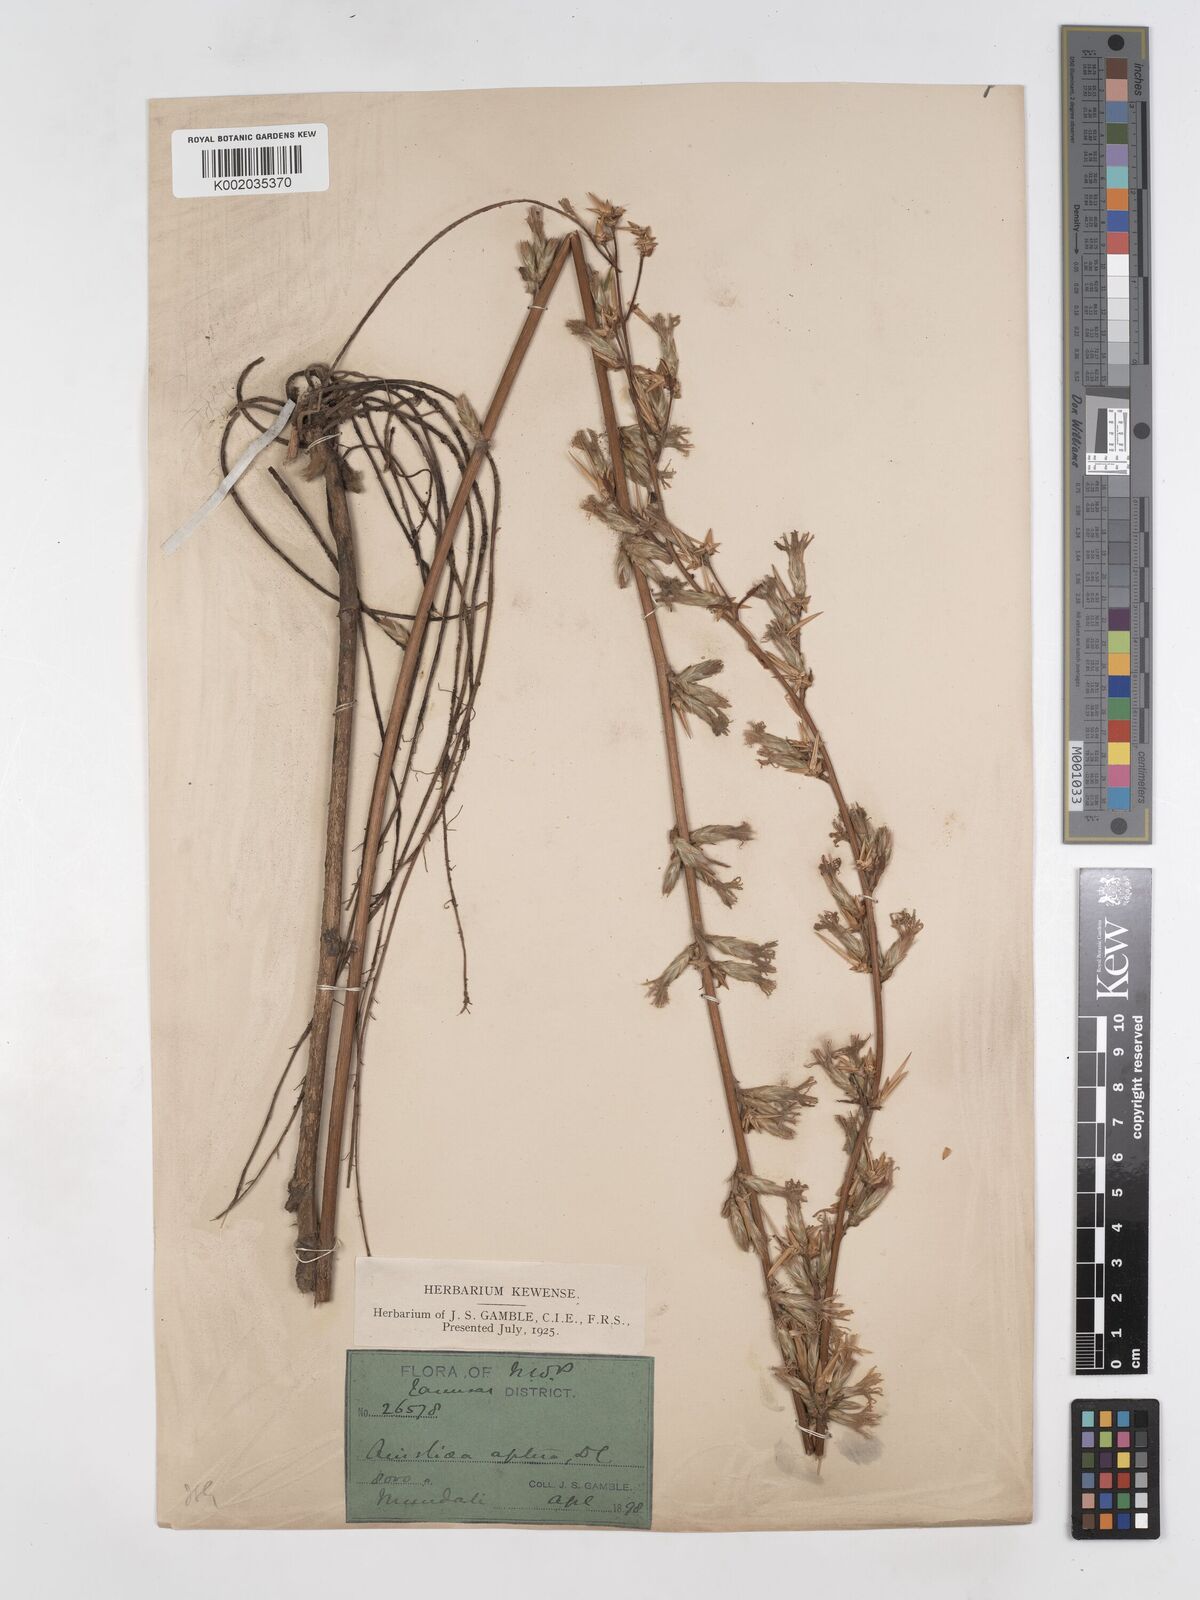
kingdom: Plantae
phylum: Tracheophyta
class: Magnoliopsida
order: Asterales
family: Asteraceae
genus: Ainsliaea
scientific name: Ainsliaea aptera
